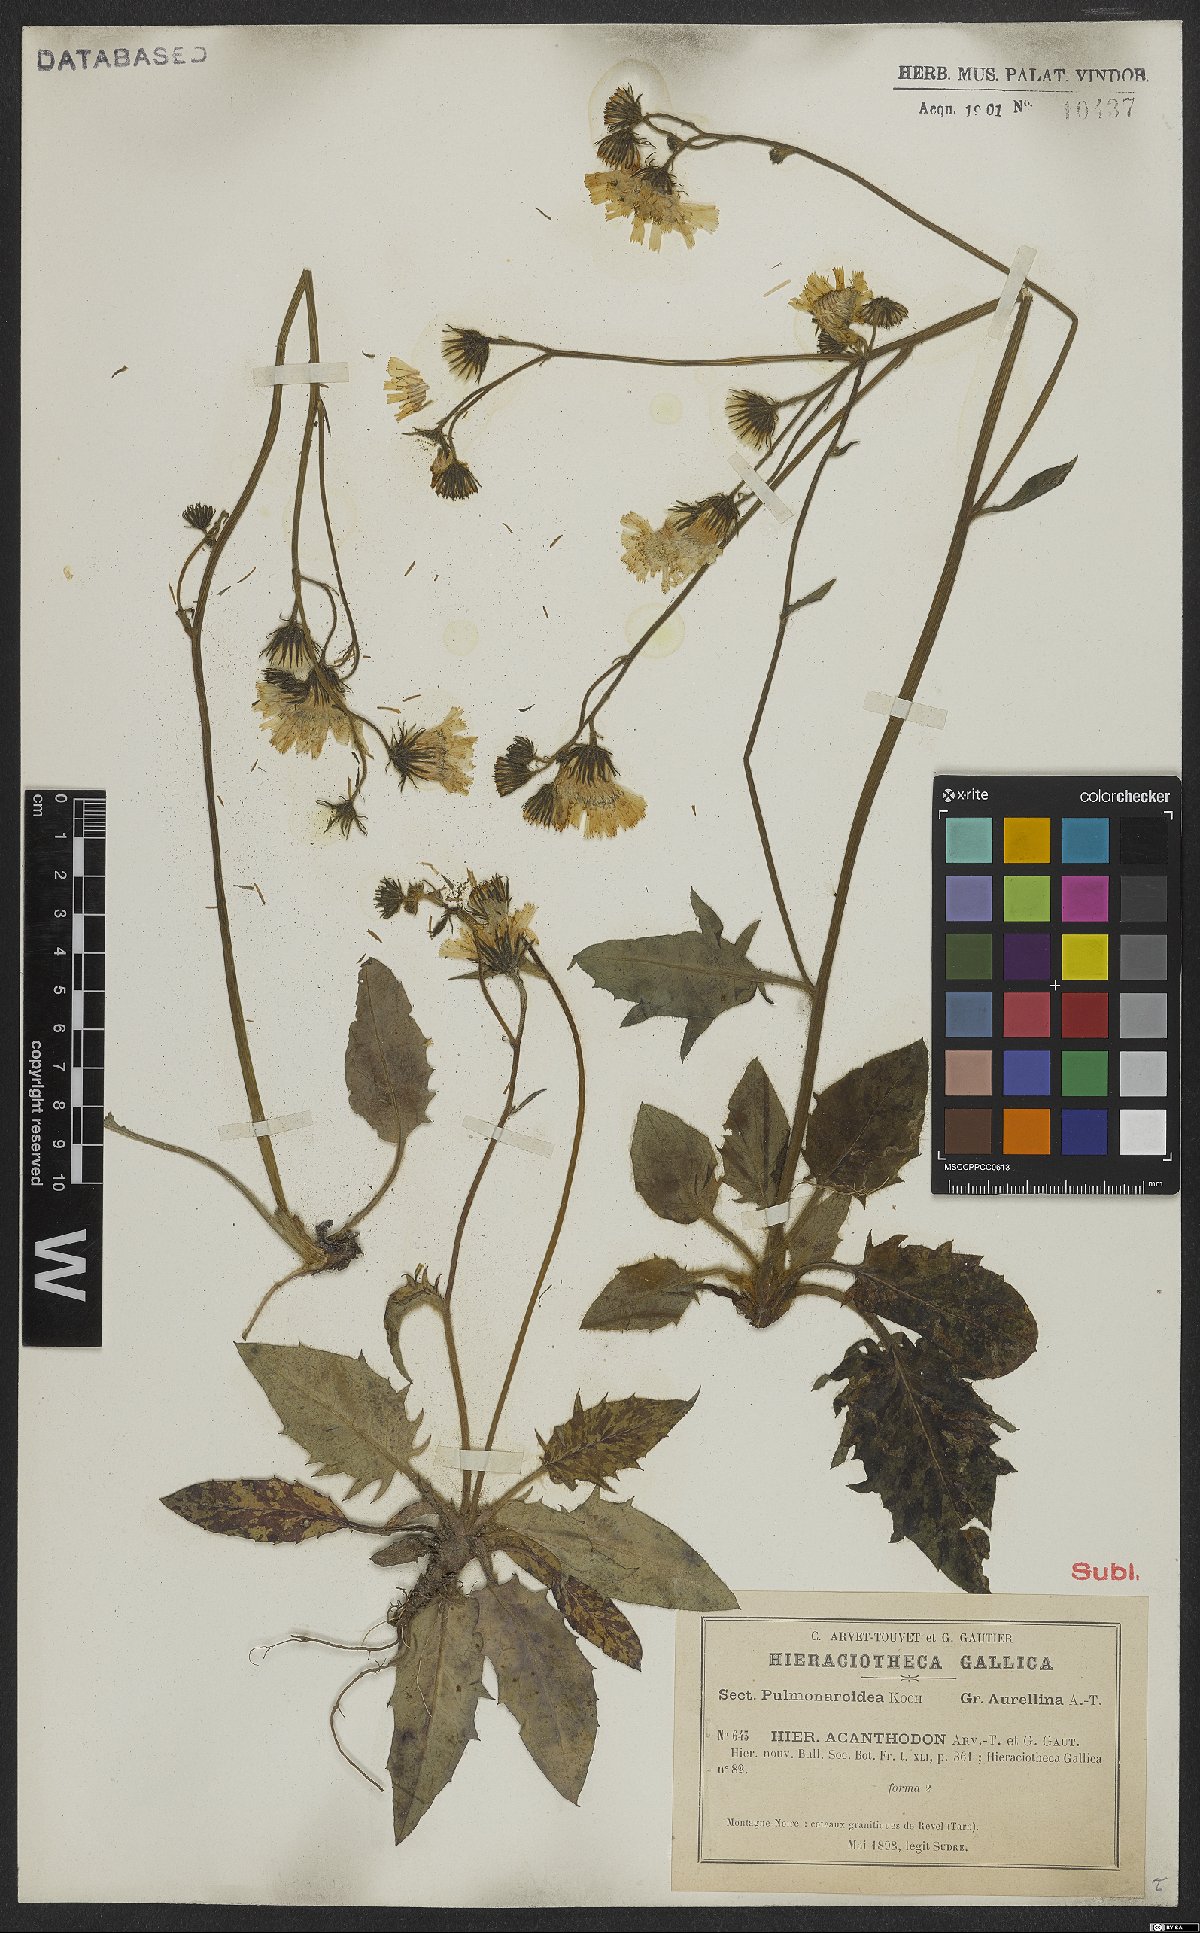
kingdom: Plantae
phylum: Tracheophyta
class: Magnoliopsida
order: Asterales
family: Asteraceae
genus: Hieracium
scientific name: Hieracium glaucinum
